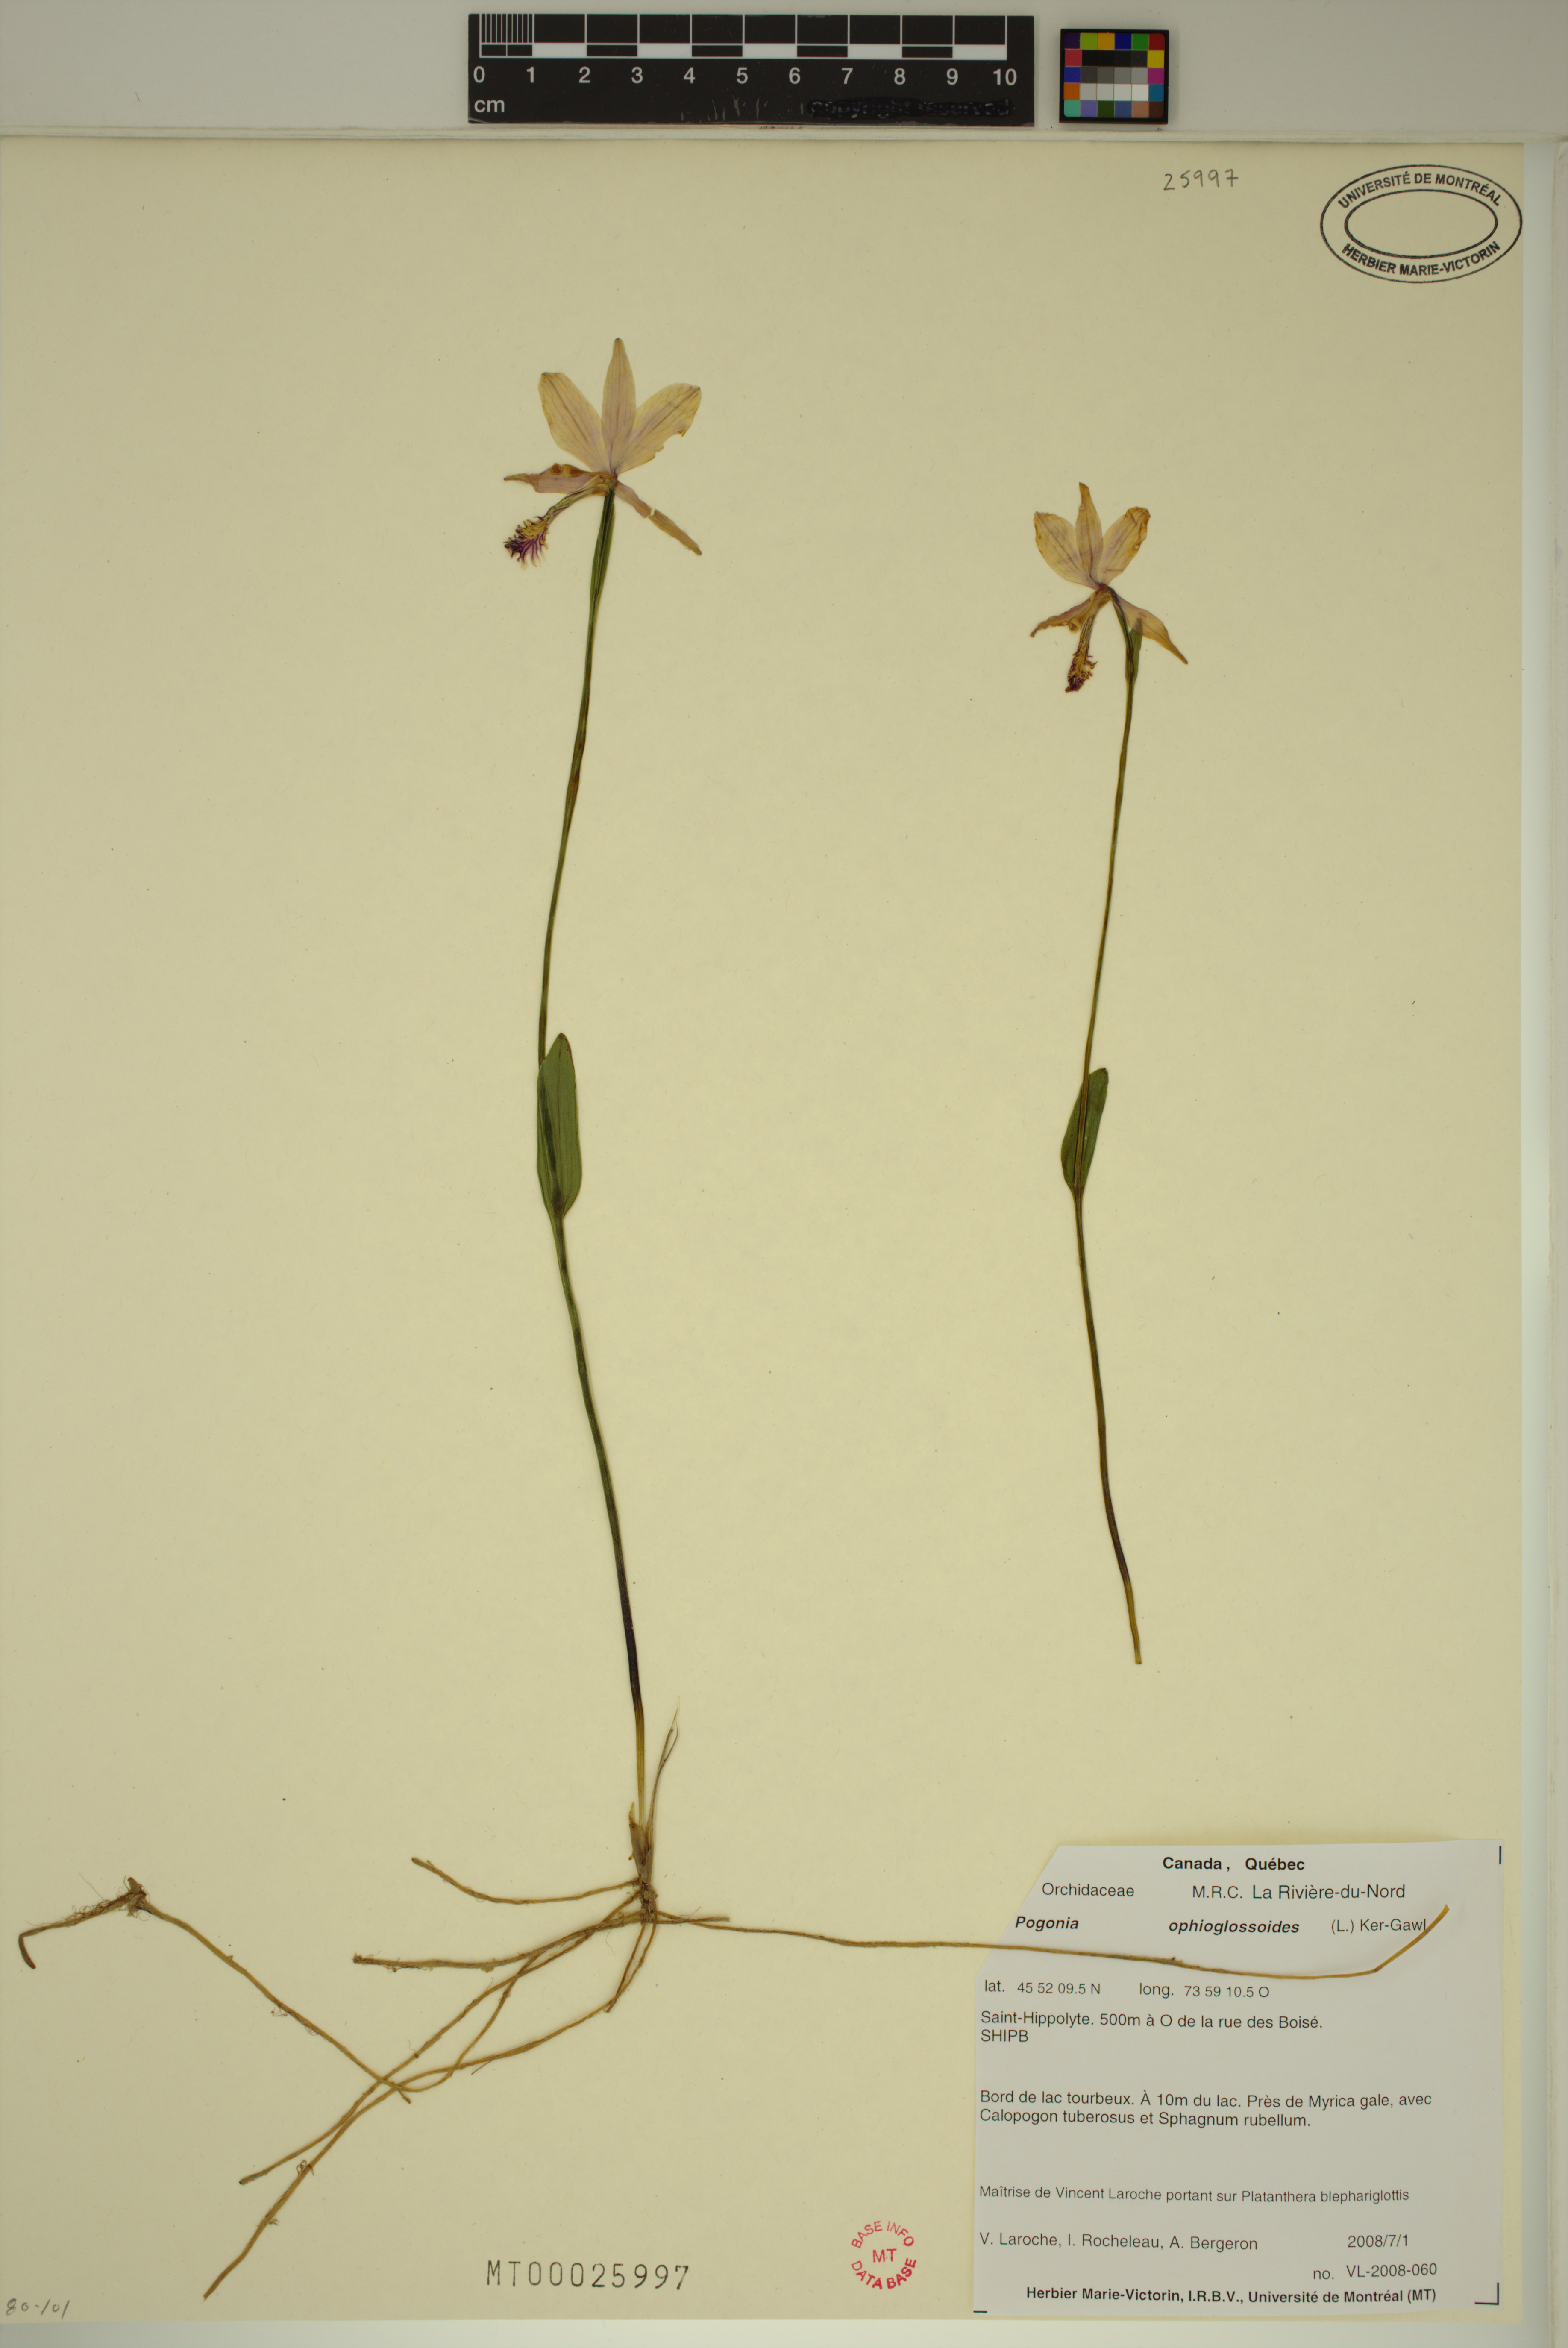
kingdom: Plantae
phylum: Tracheophyta
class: Liliopsida
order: Asparagales
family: Orchidaceae
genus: Pogonia
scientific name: Pogonia ophioglossoides
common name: Rose pogonia
